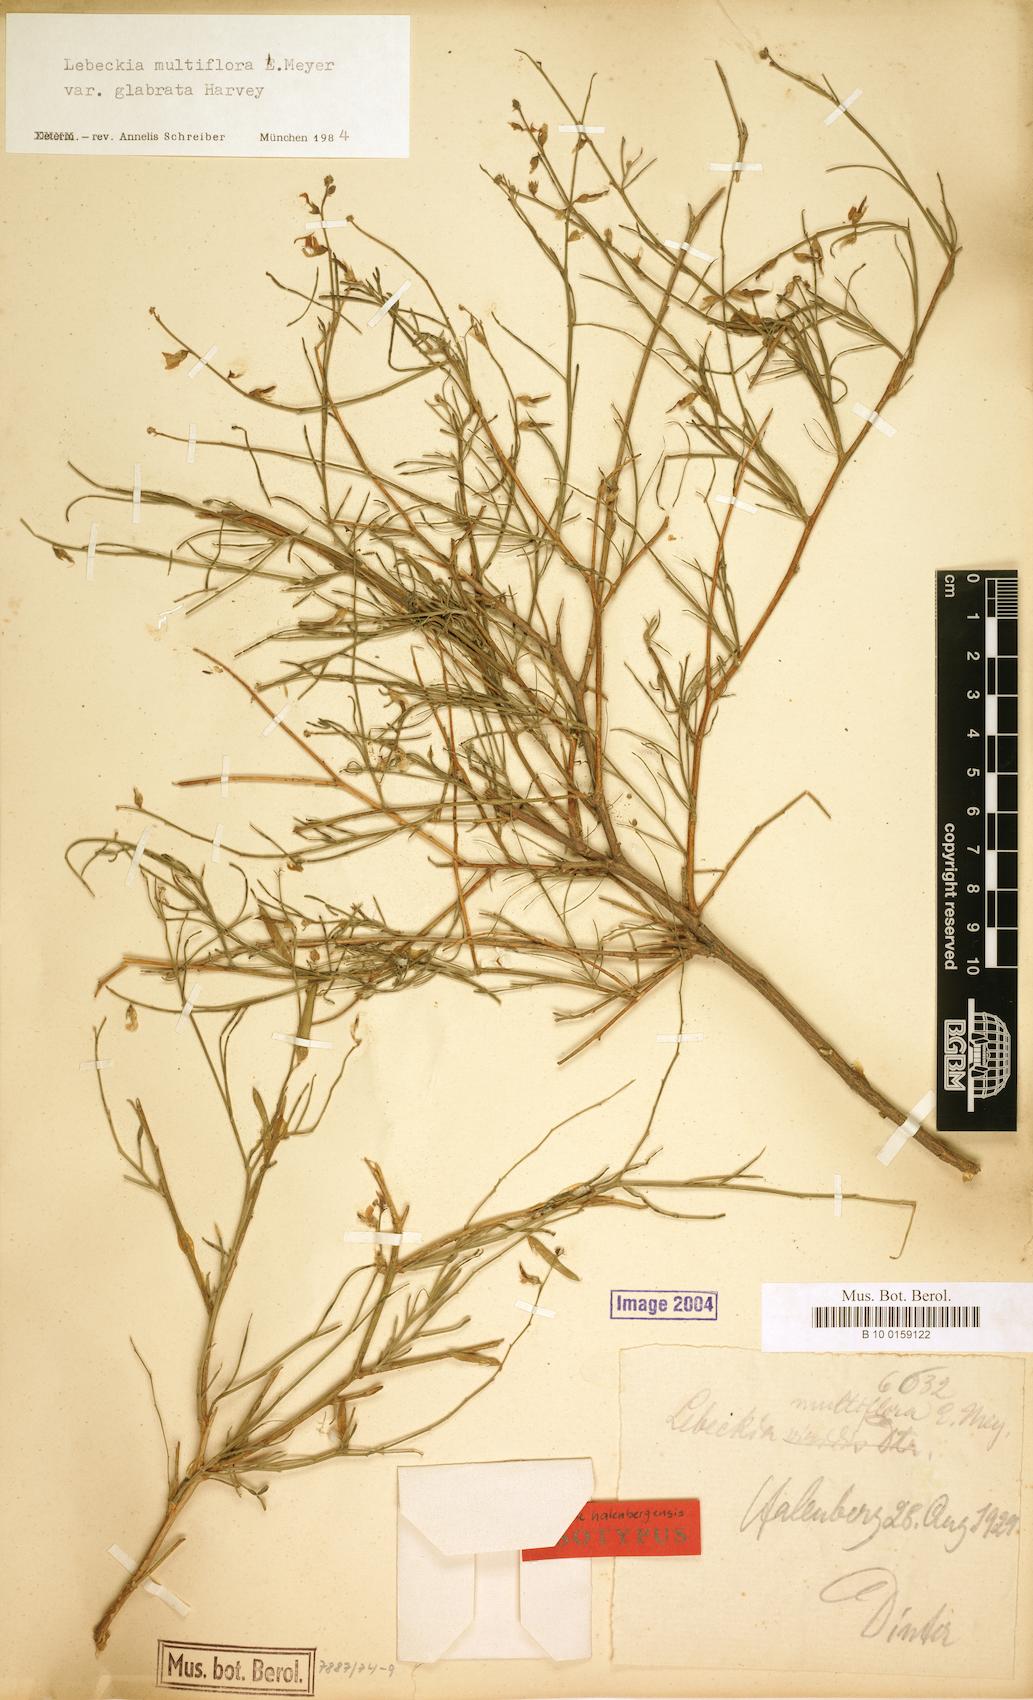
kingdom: Plantae
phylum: Tracheophyta
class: Magnoliopsida
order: Fabales
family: Fabaceae
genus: Calobota
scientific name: Calobota angustifolia
